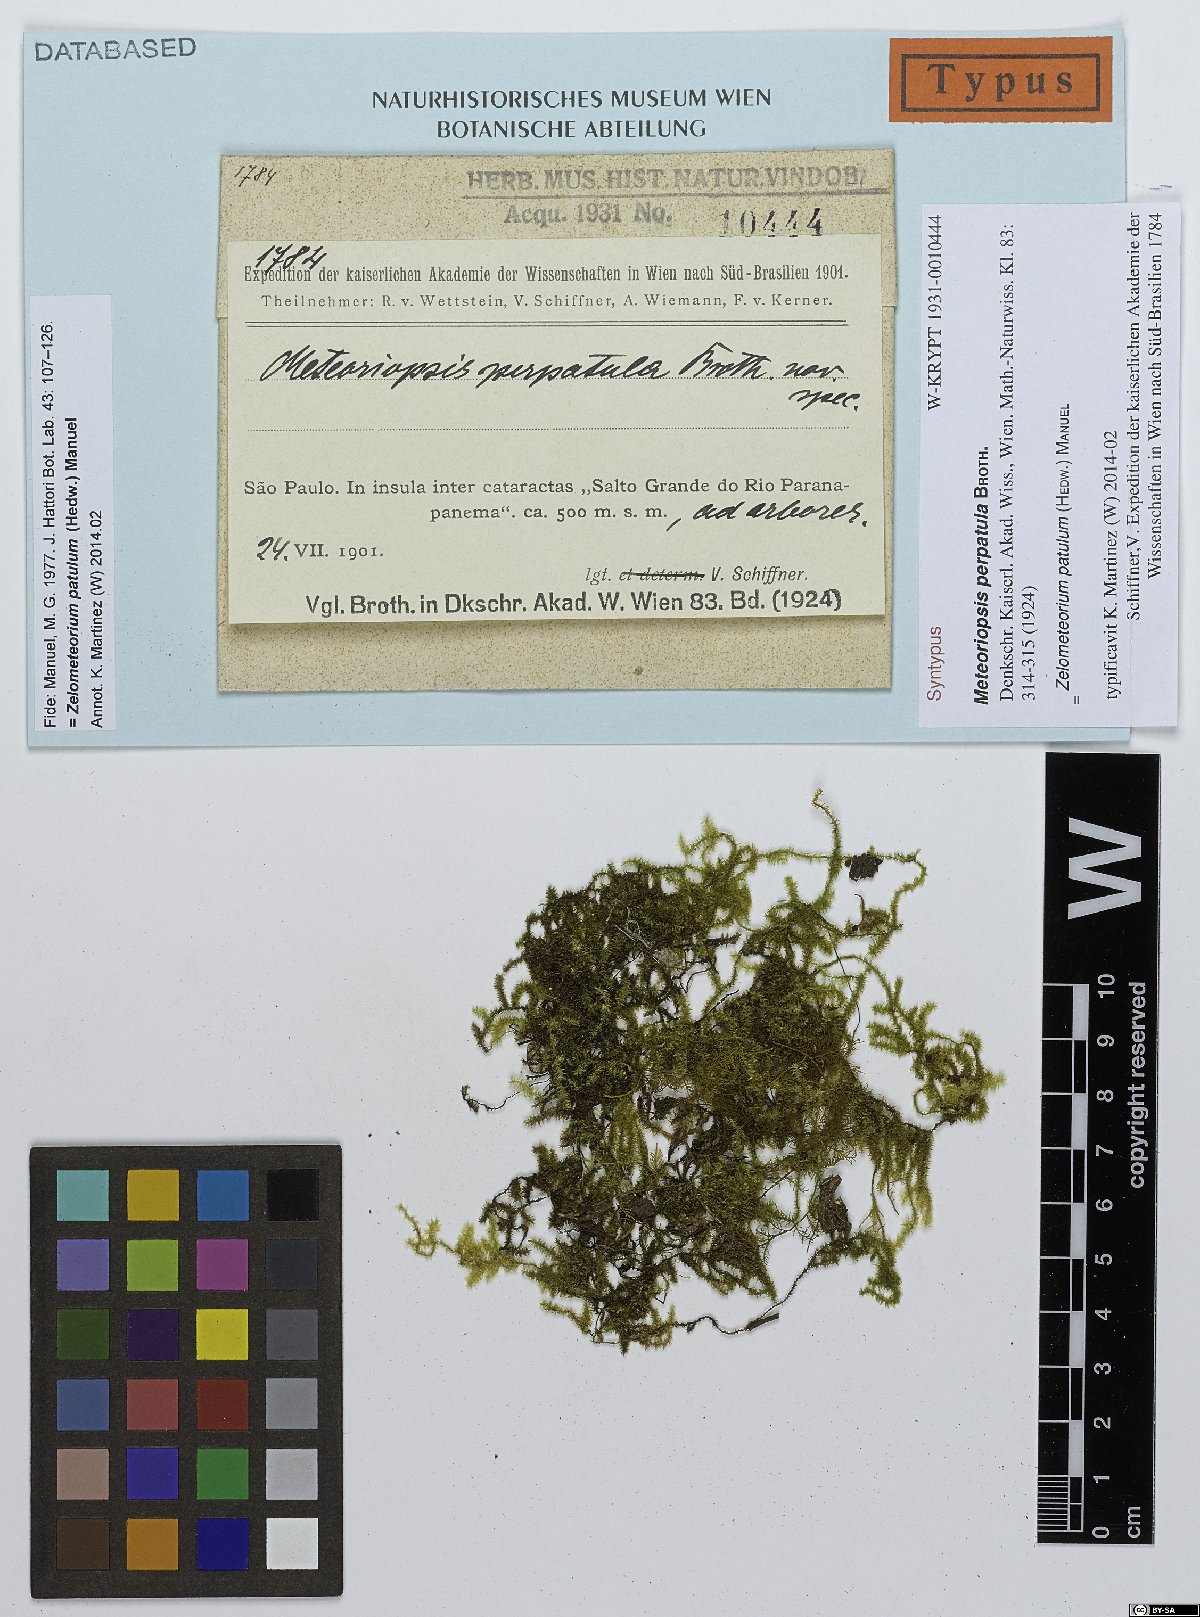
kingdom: Plantae
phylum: Bryophyta
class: Bryopsida
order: Hypnales
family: Brachytheciaceae
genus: Zelometeorium
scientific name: Zelometeorium patulum
